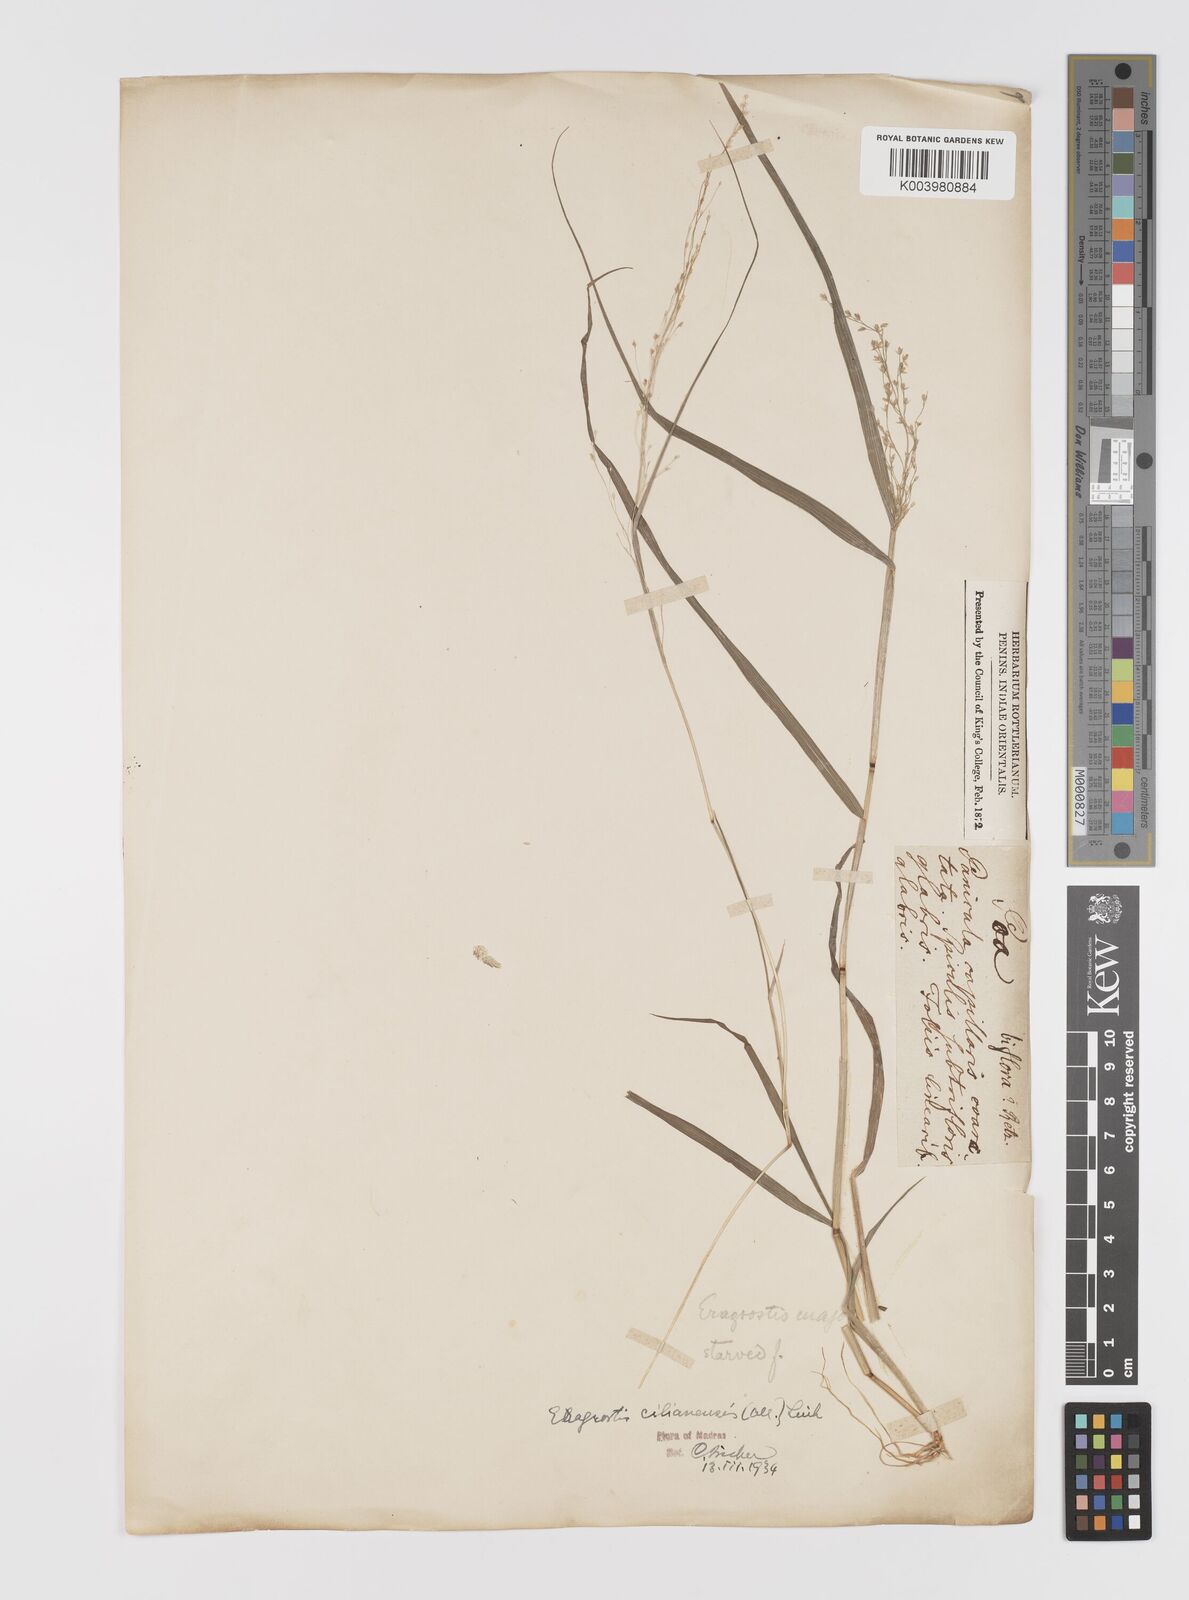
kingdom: Plantae
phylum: Tracheophyta
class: Liliopsida
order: Poales
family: Poaceae
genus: Eragrostis
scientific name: Eragrostis cilianensis
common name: Stinkgrass
